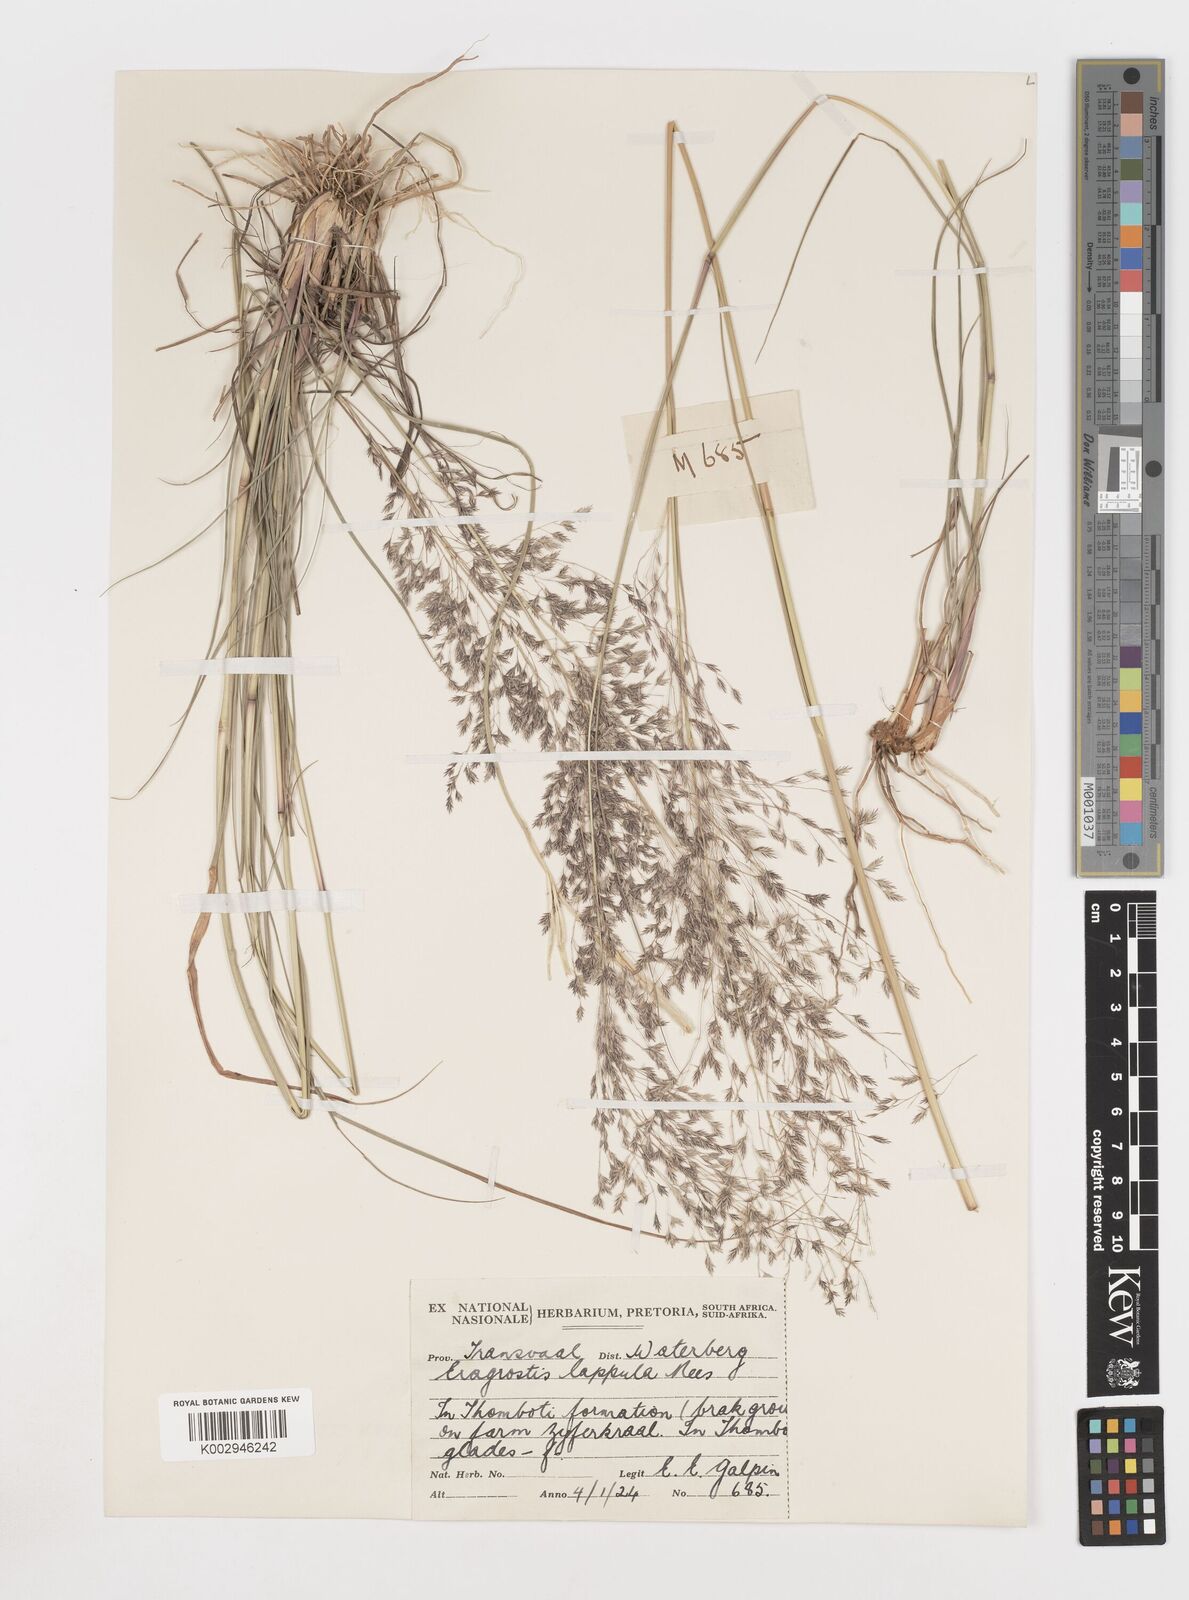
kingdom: Plantae
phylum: Tracheophyta
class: Liliopsida
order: Poales
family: Poaceae
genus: Eragrostis
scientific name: Eragrostis lappula
